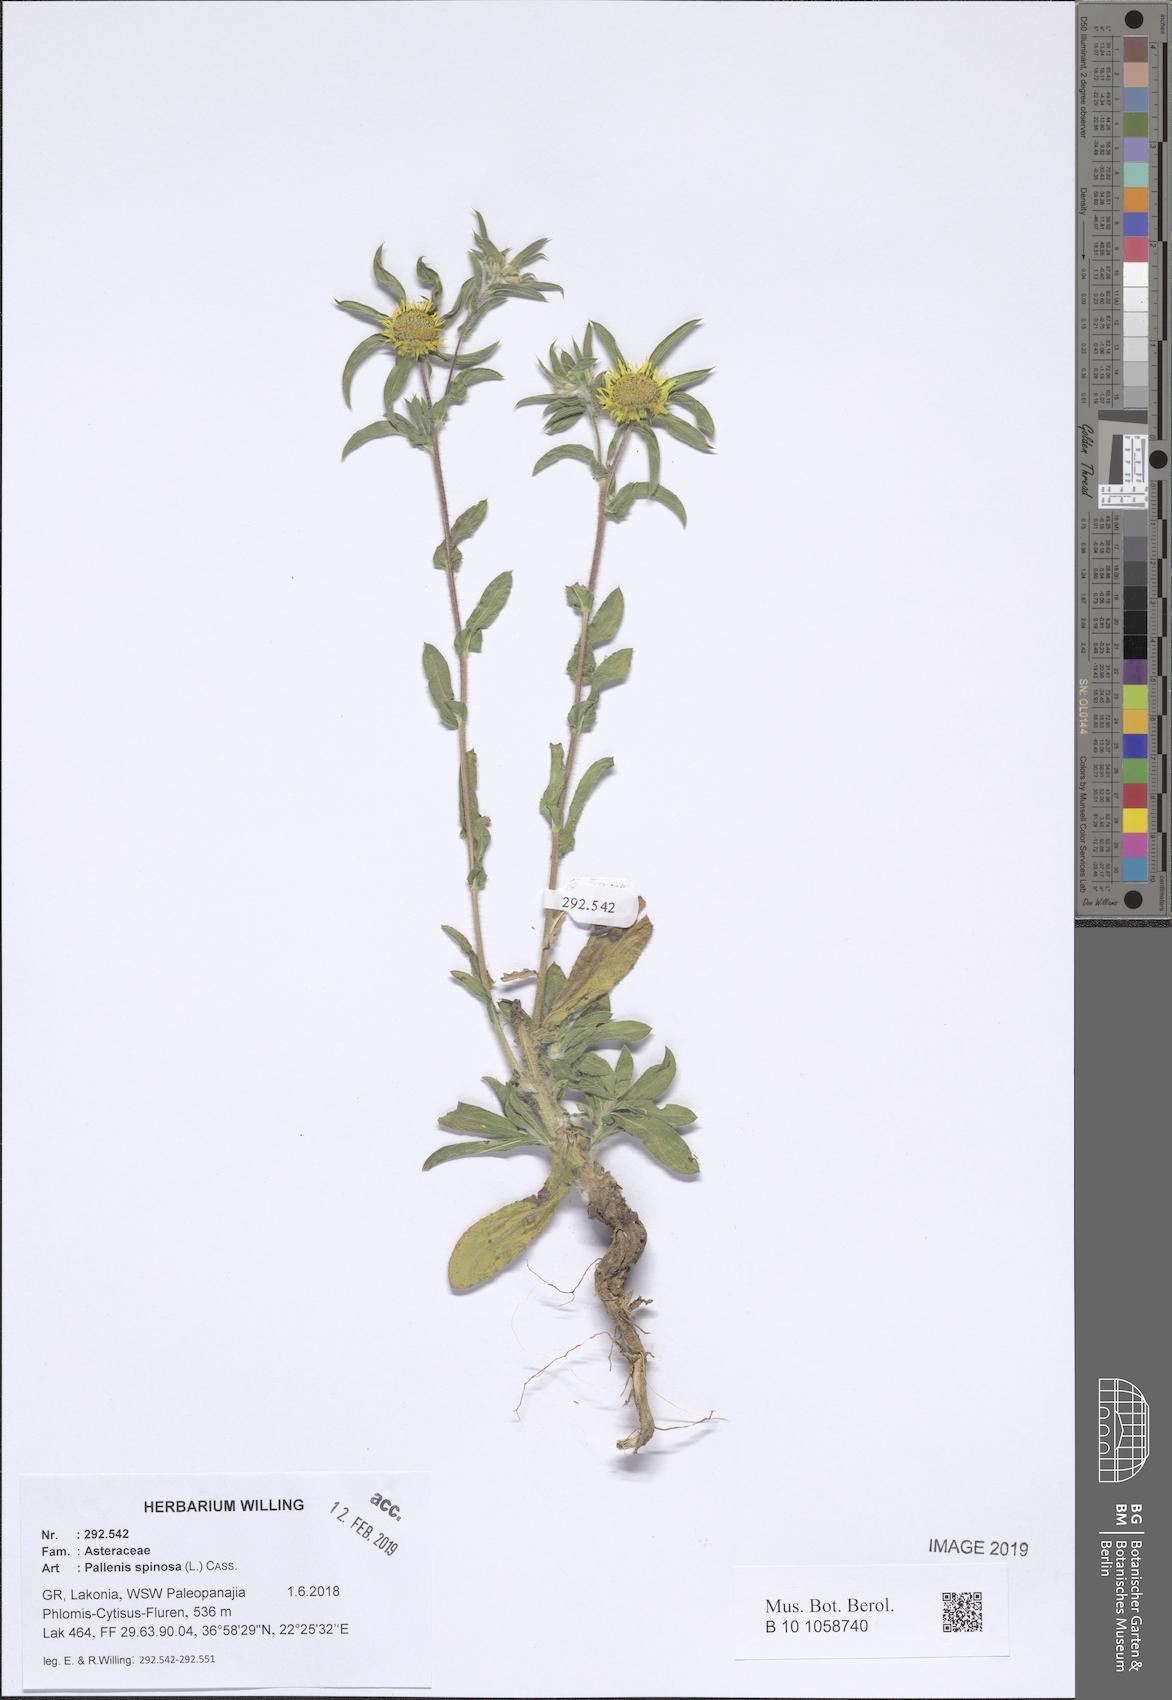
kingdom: Plantae
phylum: Tracheophyta
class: Magnoliopsida
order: Asterales
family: Asteraceae
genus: Pallenis
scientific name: Pallenis spinosa
